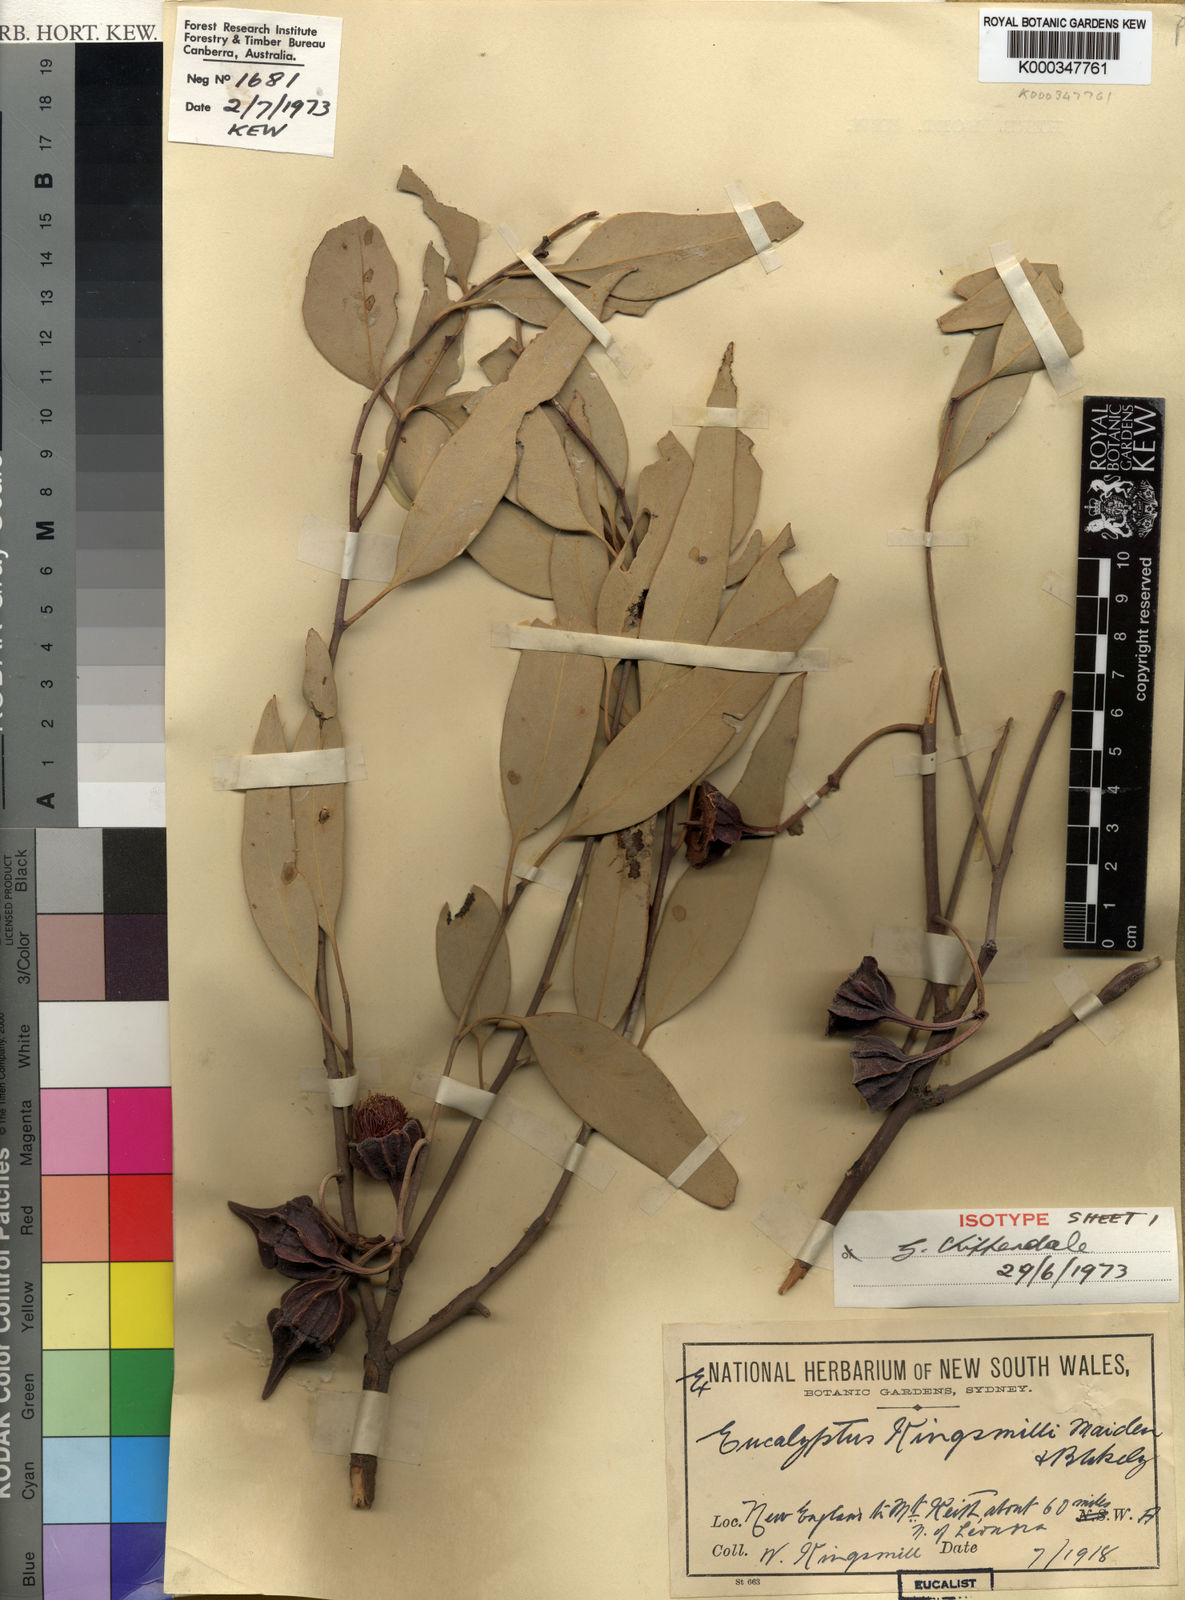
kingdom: Plantae
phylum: Tracheophyta
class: Magnoliopsida
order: Myrtales
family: Myrtaceae
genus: Eucalyptus
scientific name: Eucalyptus kingsmillii
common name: Kingsmill's mallee
